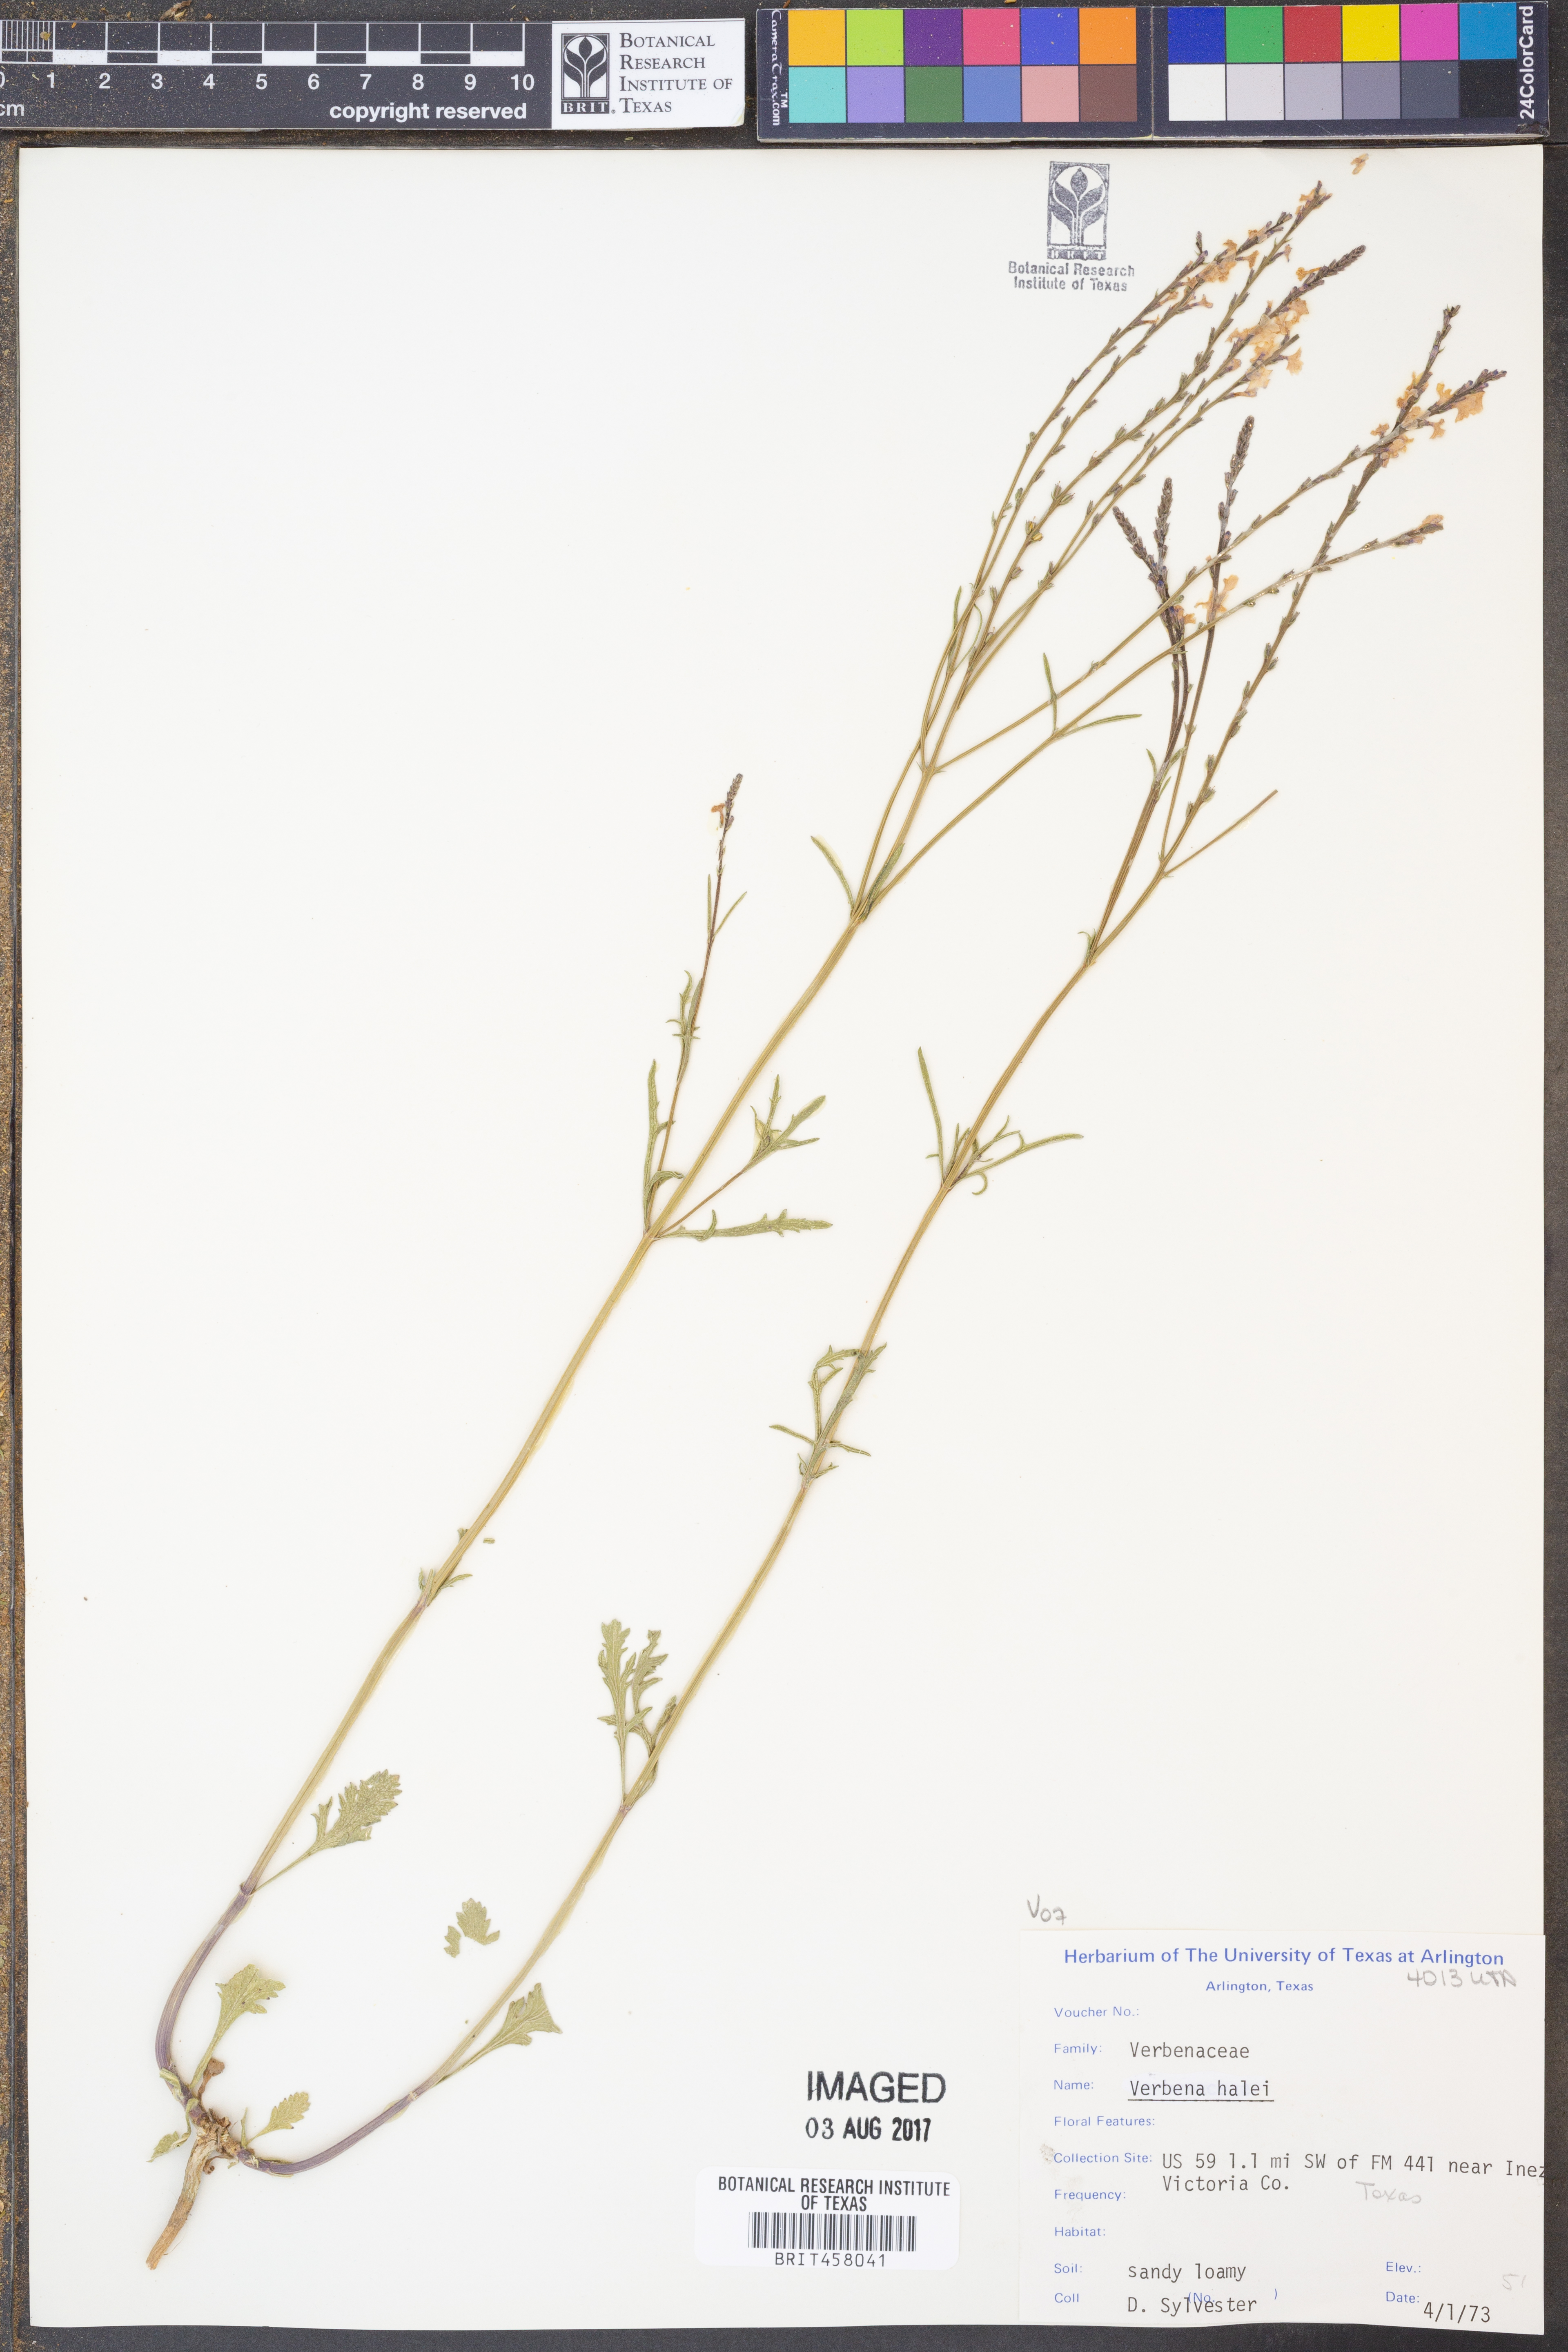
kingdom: Plantae
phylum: Tracheophyta
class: Magnoliopsida
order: Lamiales
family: Verbenaceae
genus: Verbena
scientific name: Verbena halei
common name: Texas vervain
